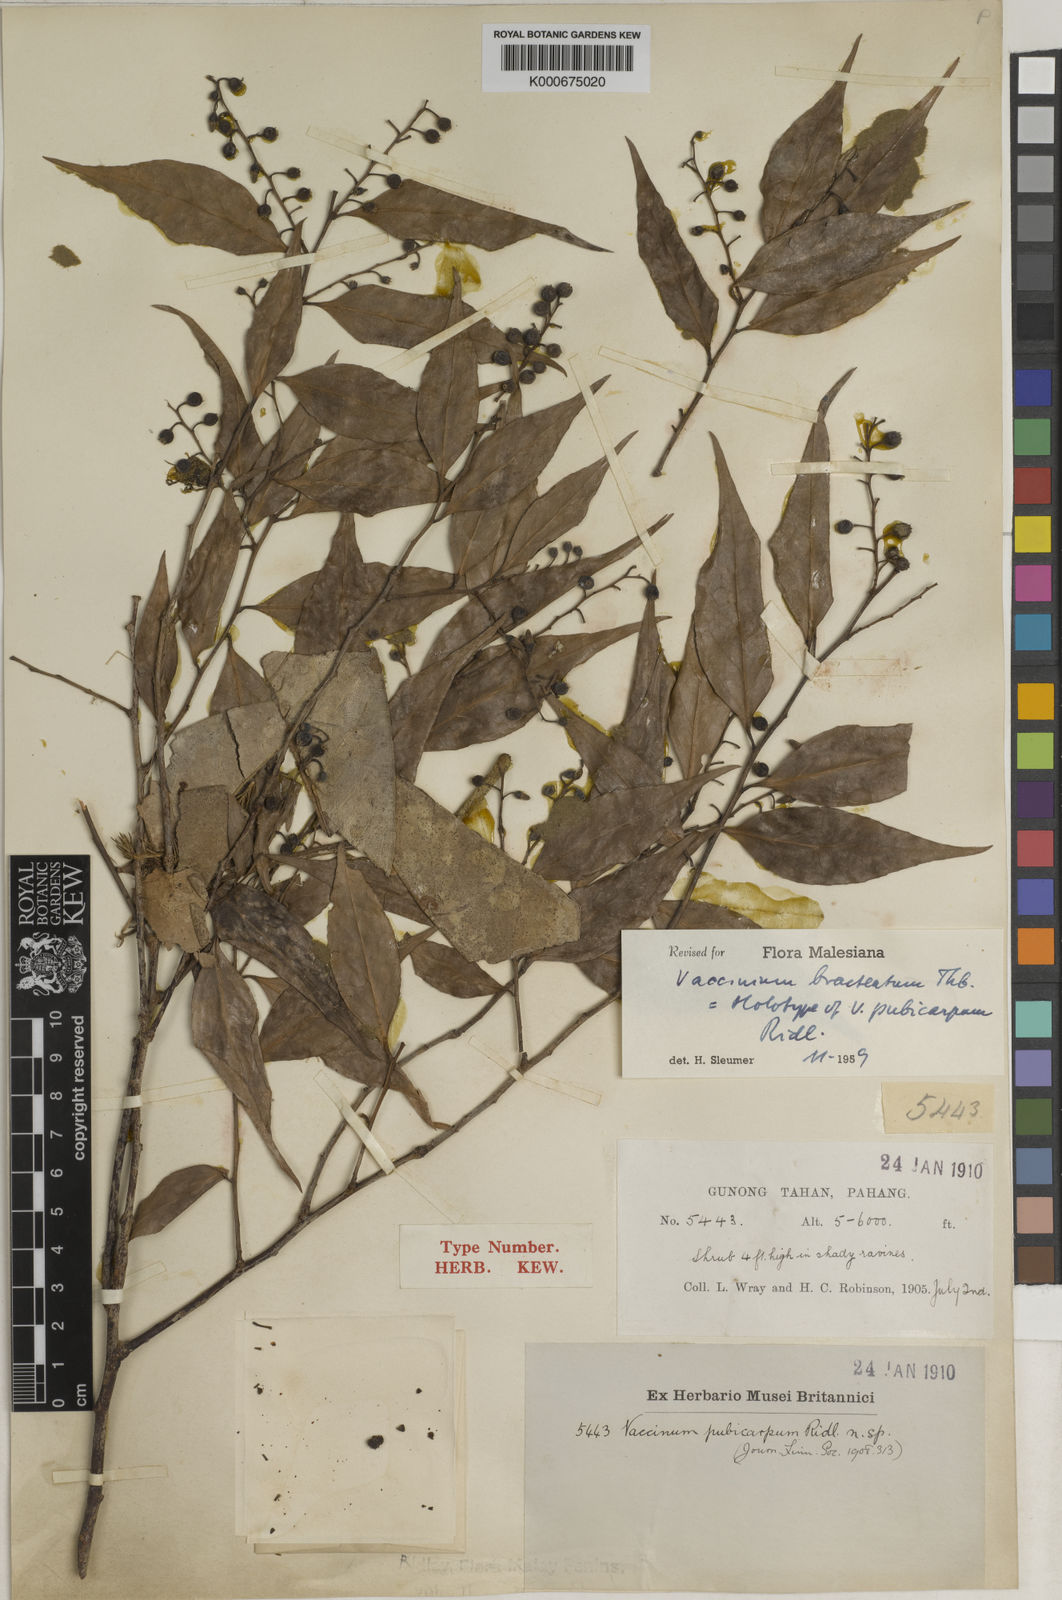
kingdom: Plantae
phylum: Tracheophyta
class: Magnoliopsida
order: Ericales
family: Ericaceae
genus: Vaccinium
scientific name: Vaccinium bracteatum
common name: Sea bilberry
